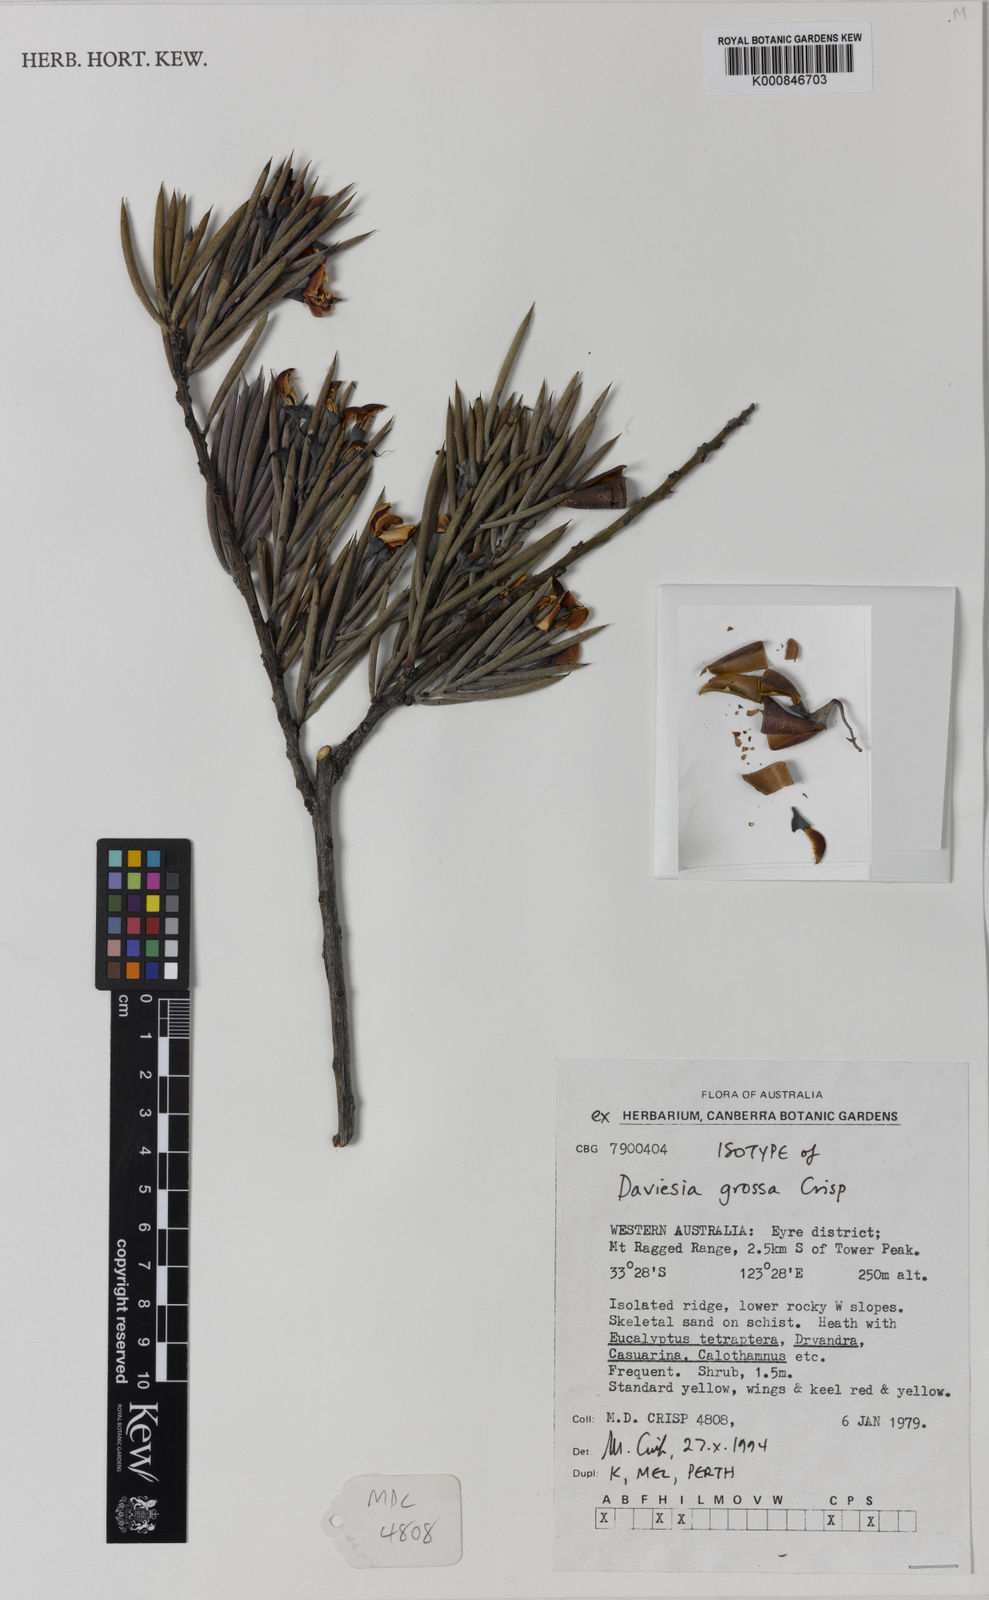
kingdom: Plantae
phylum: Tracheophyta
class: Magnoliopsida
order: Fabales
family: Fabaceae
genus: Daviesia
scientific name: Daviesia grossa
